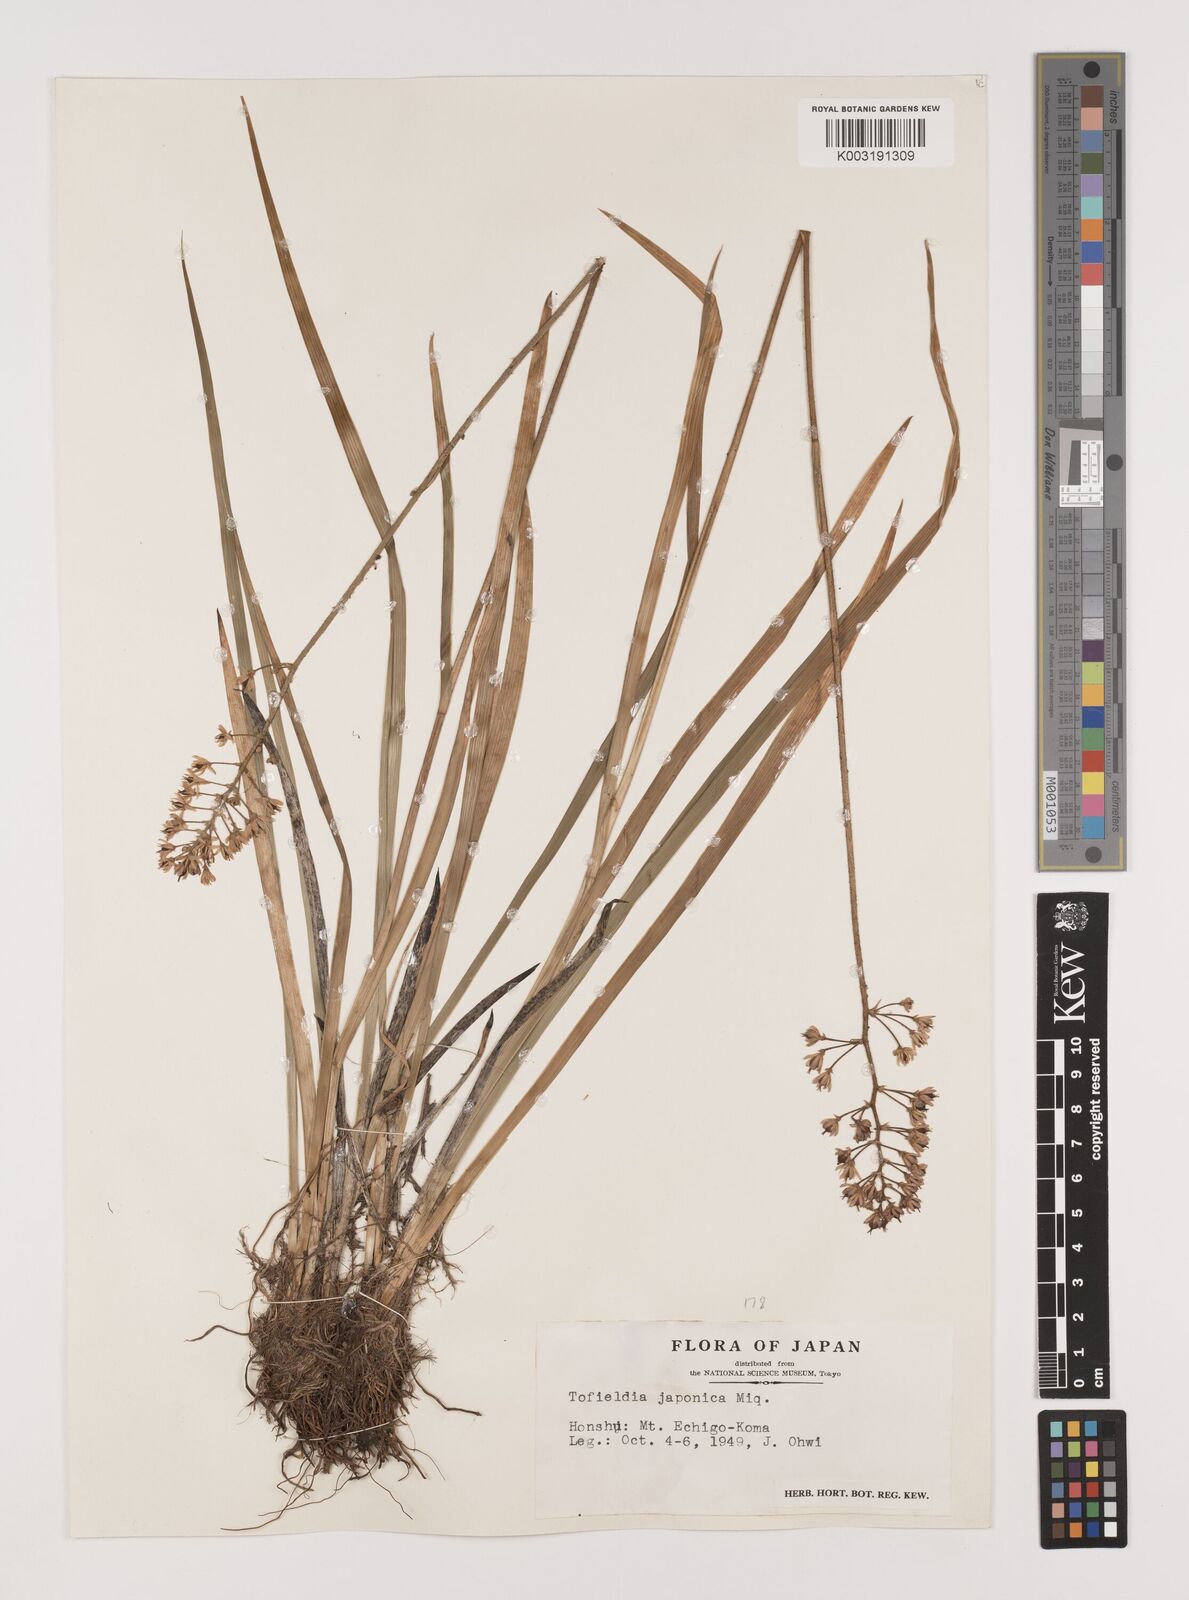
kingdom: Plantae
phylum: Tracheophyta
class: Liliopsida
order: Alismatales
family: Tofieldiaceae
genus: Triantha
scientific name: Triantha japonica
